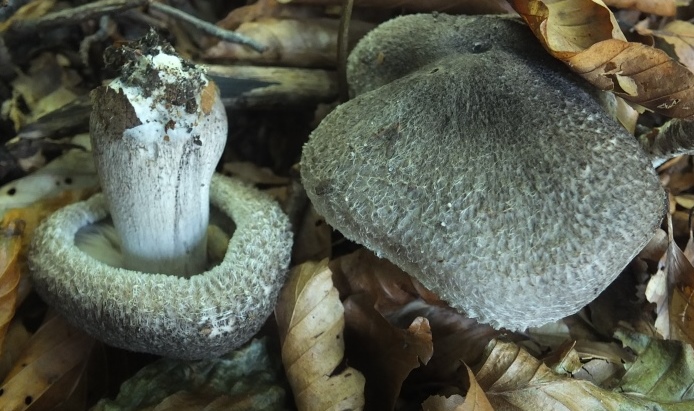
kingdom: Fungi
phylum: Basidiomycota
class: Agaricomycetes
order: Agaricales
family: Tricholomataceae
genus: Tricholoma
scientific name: Tricholoma atrosquamosum
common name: sortskællet ridderhat
